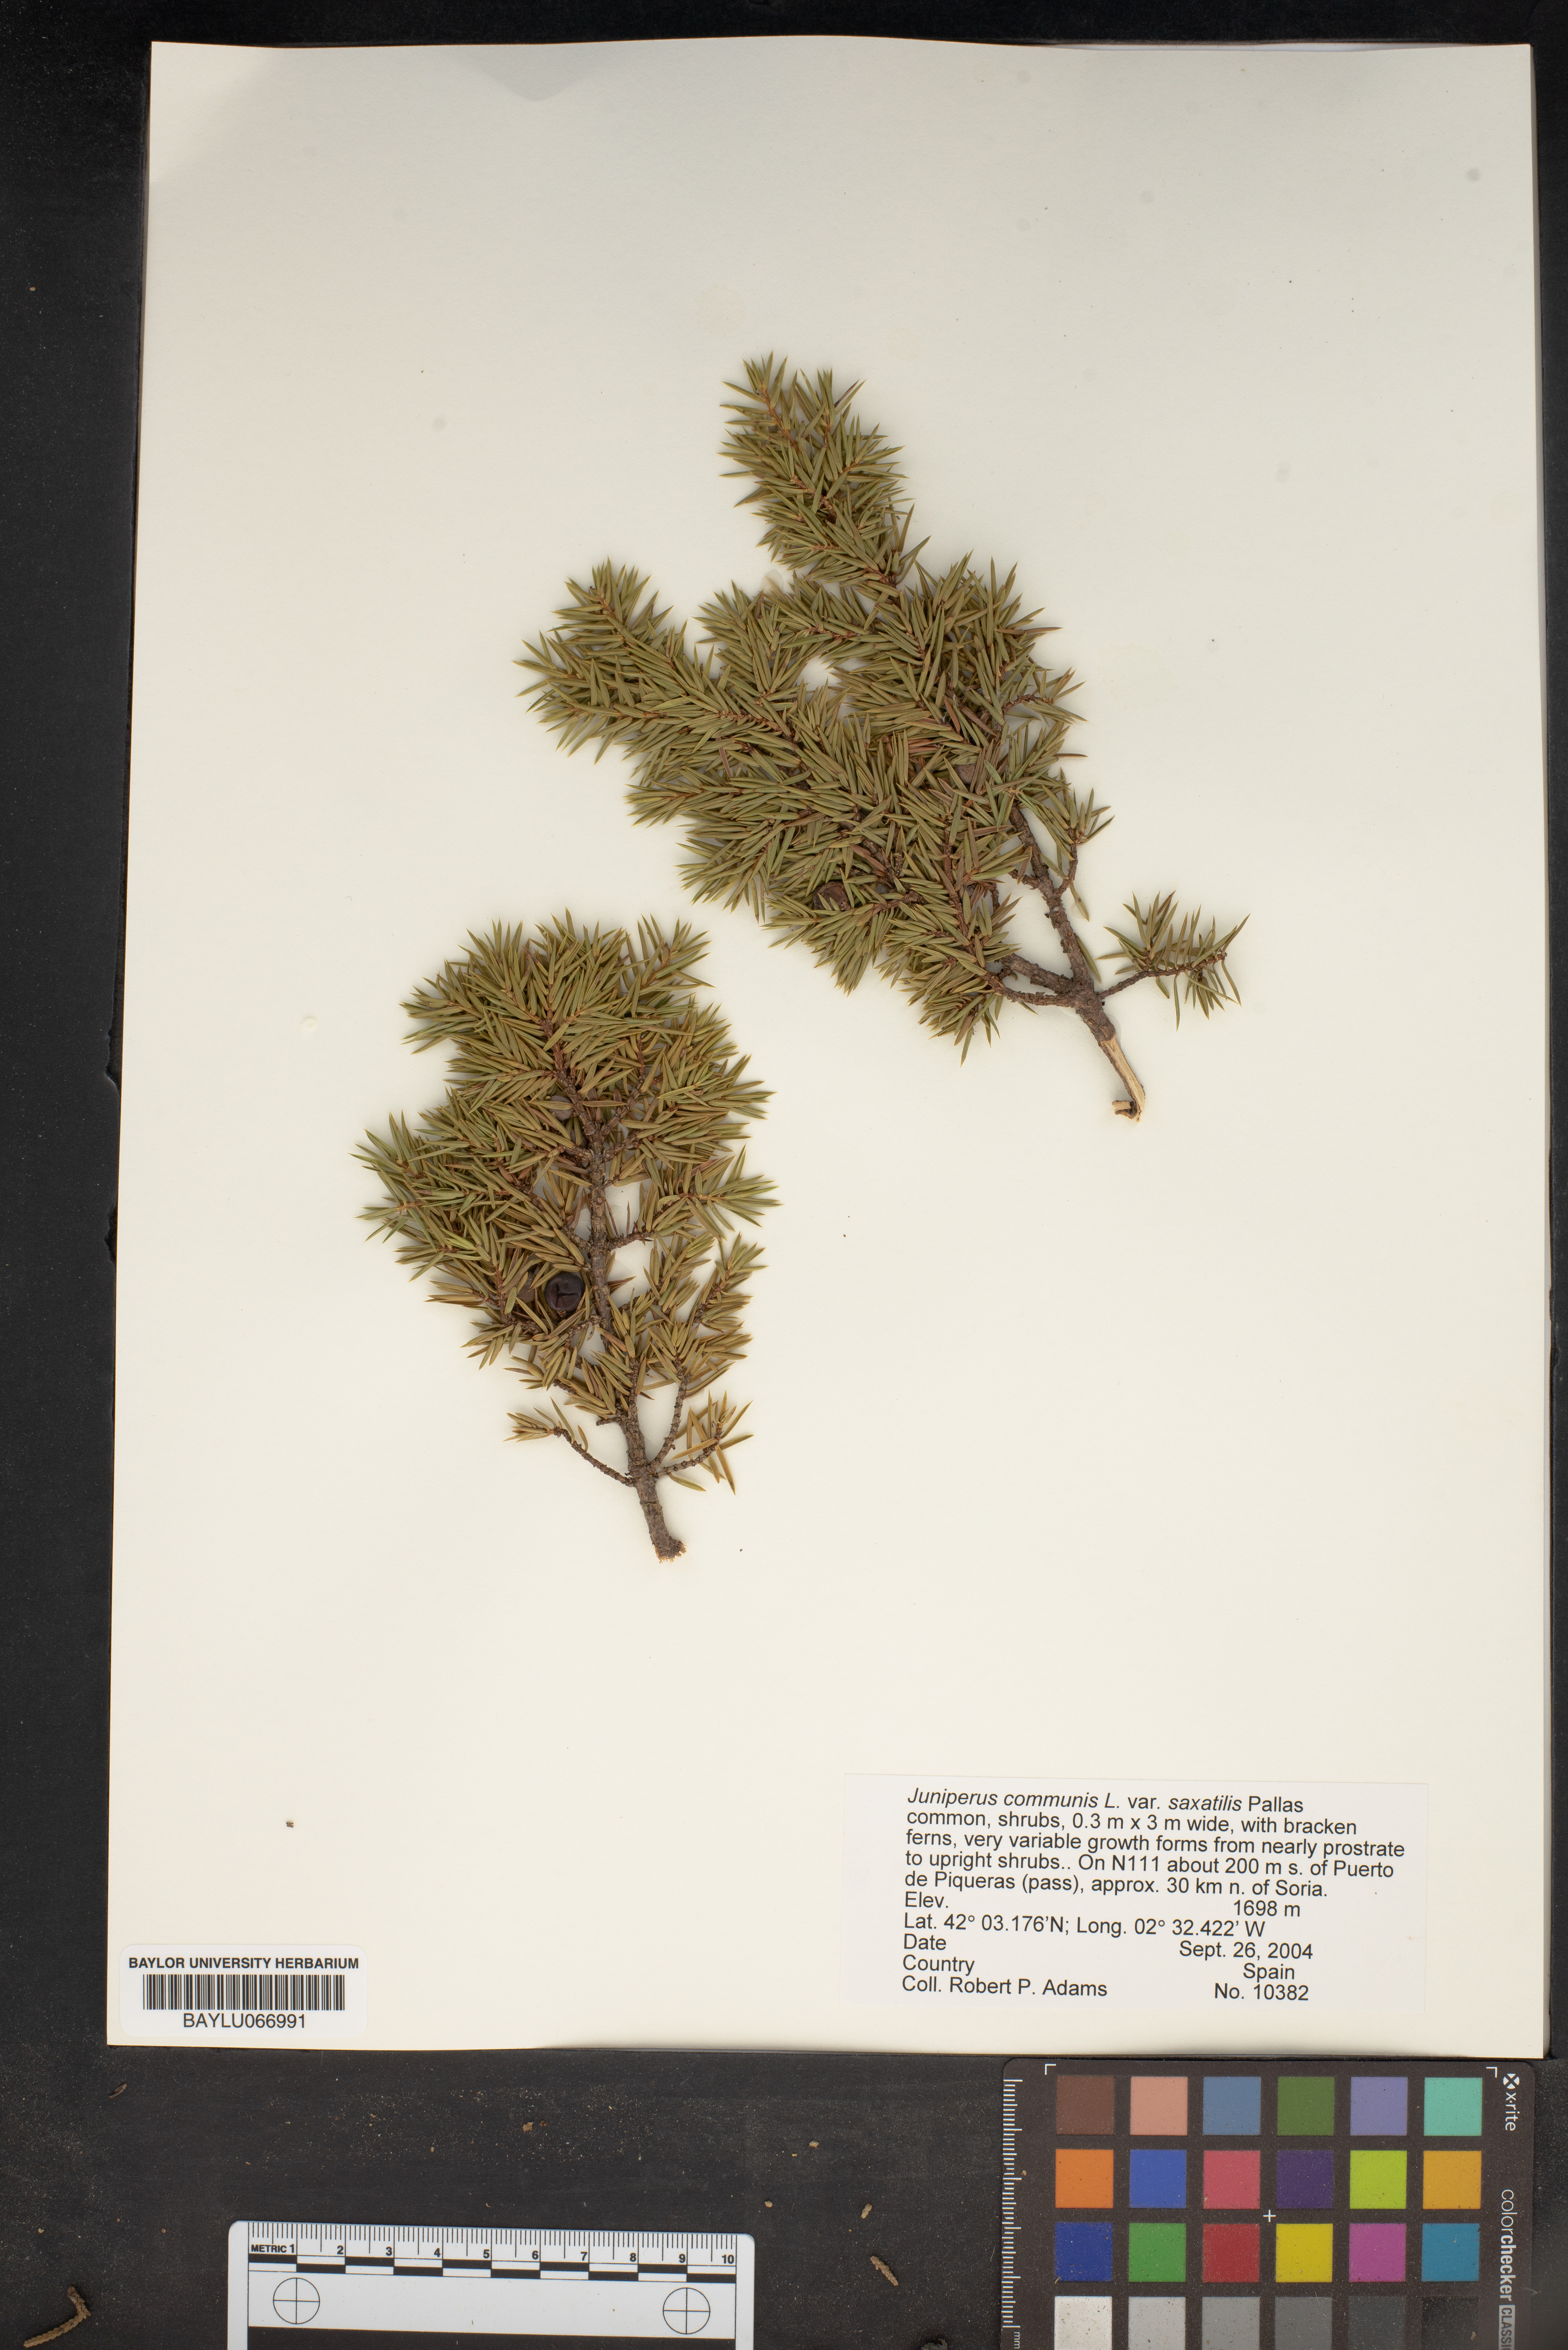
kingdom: Plantae
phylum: Tracheophyta
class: Pinopsida
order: Pinales
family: Cupressaceae
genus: Juniperus
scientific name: Juniperus communis
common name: Common juniper
